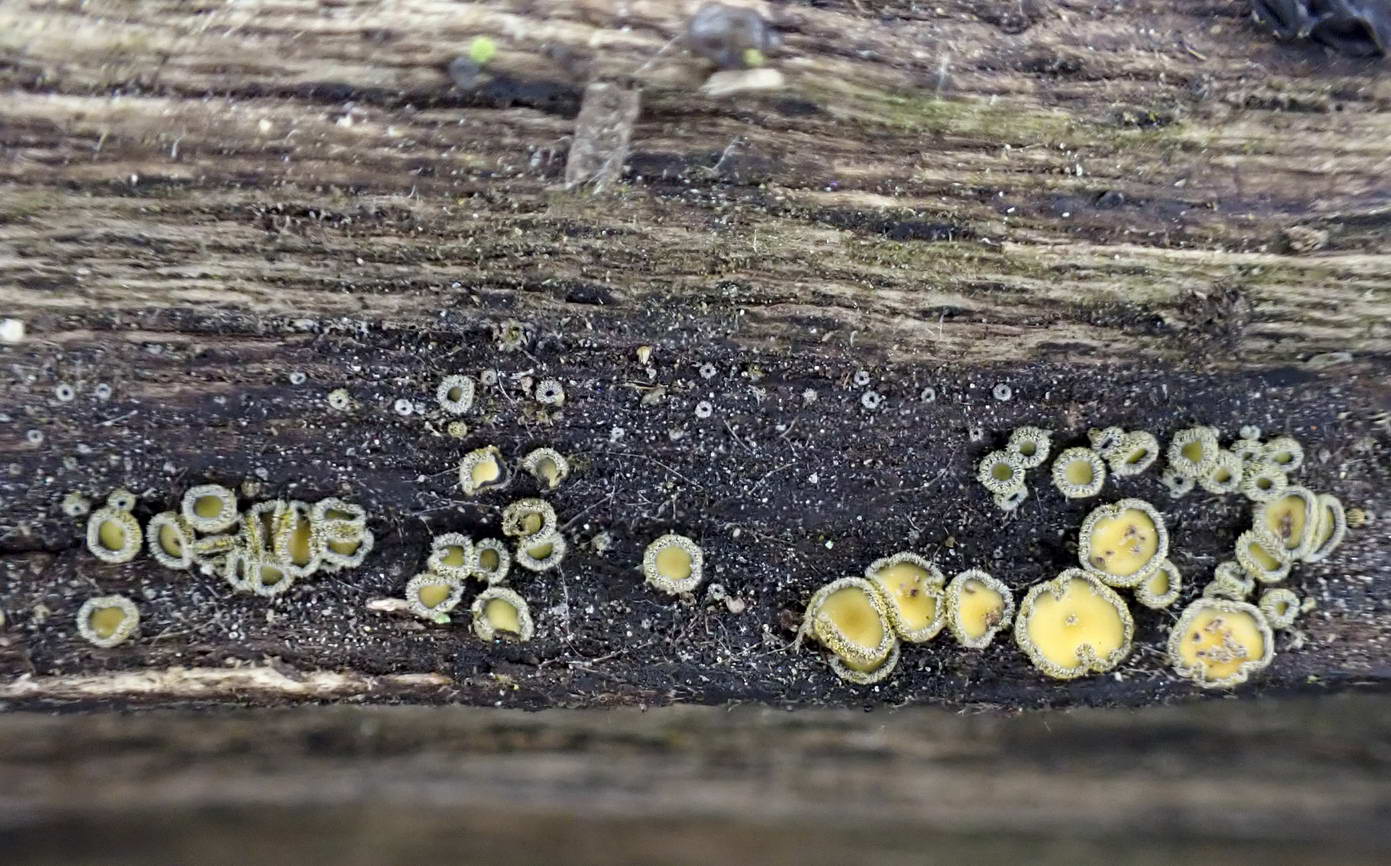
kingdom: Fungi
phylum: Ascomycota
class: Leotiomycetes
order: Helotiales
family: Lachnaceae
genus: Neodasyscypha
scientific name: Neodasyscypha cerina
